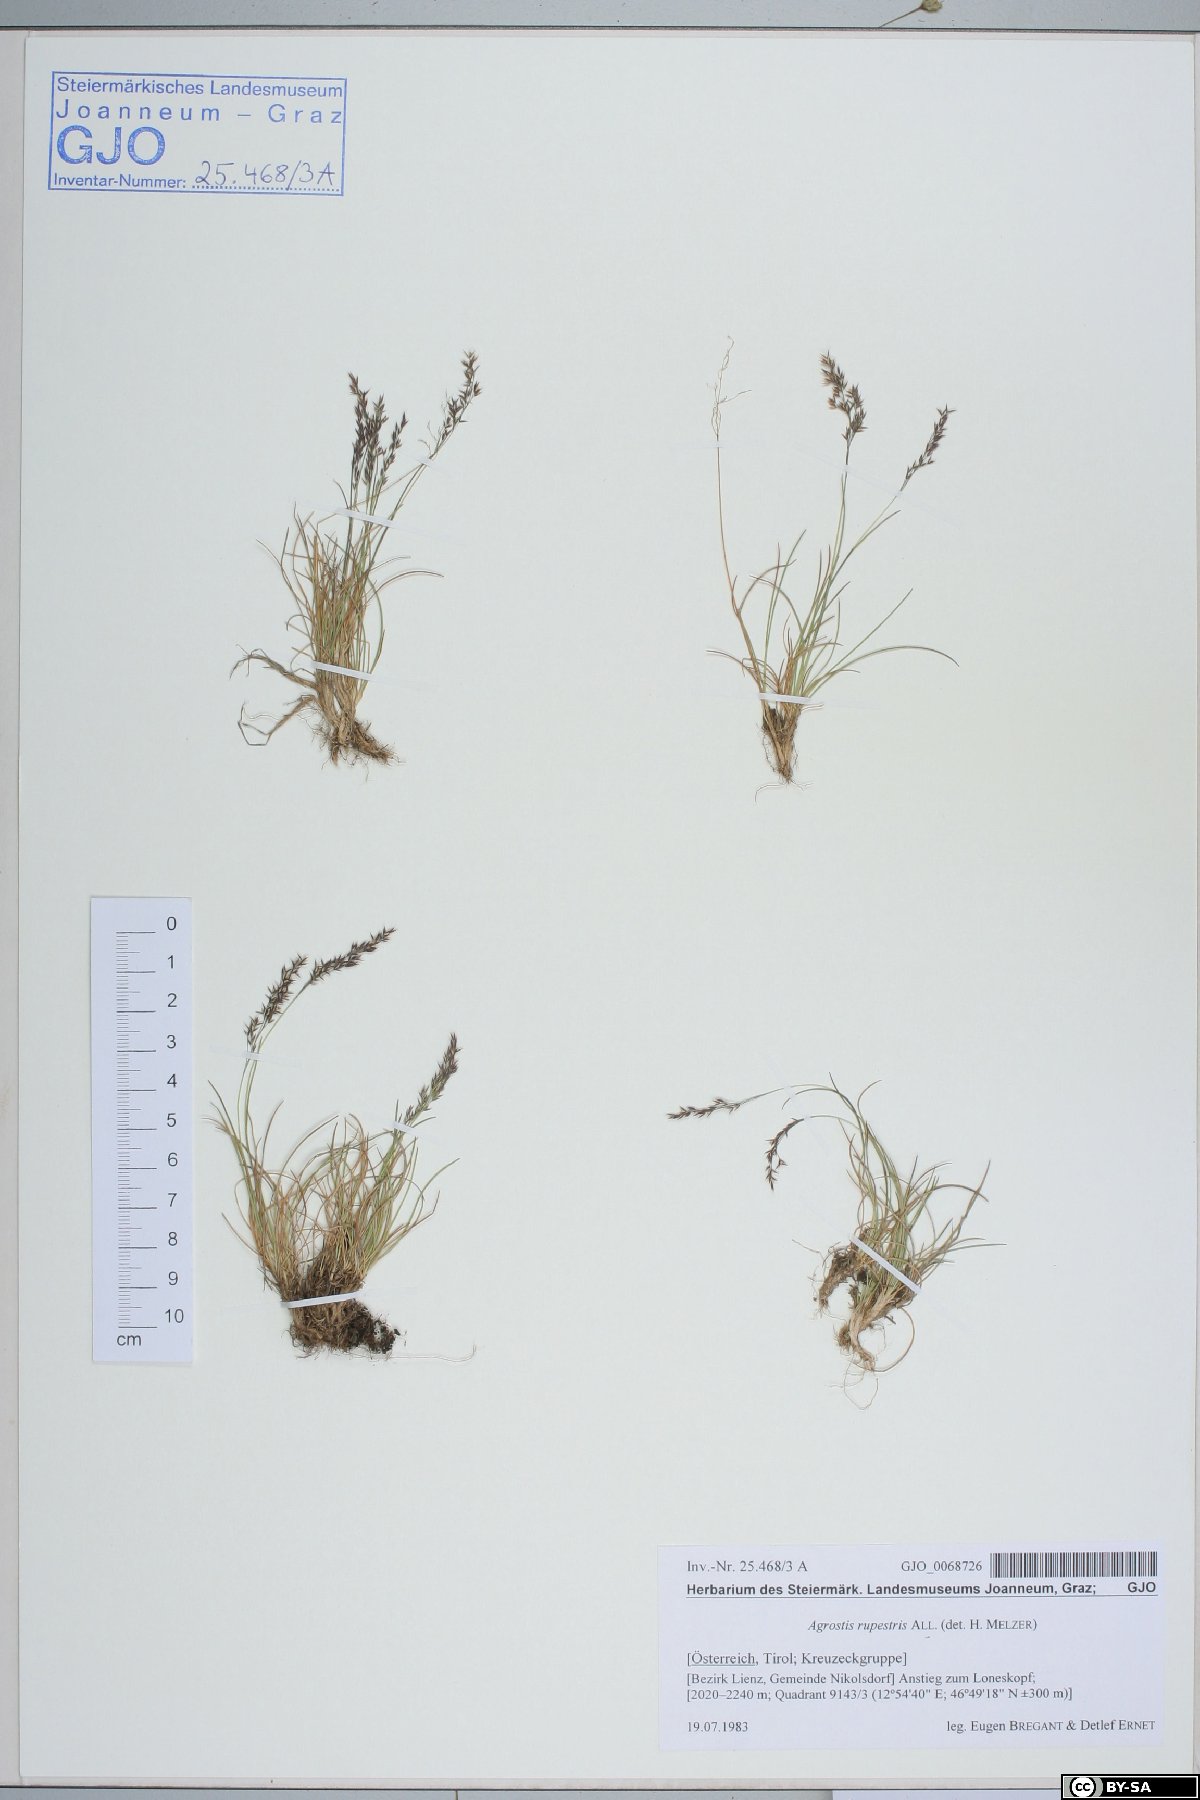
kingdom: Plantae
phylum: Tracheophyta
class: Liliopsida
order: Poales
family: Poaceae
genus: Agrostis
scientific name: Agrostis rupestris
